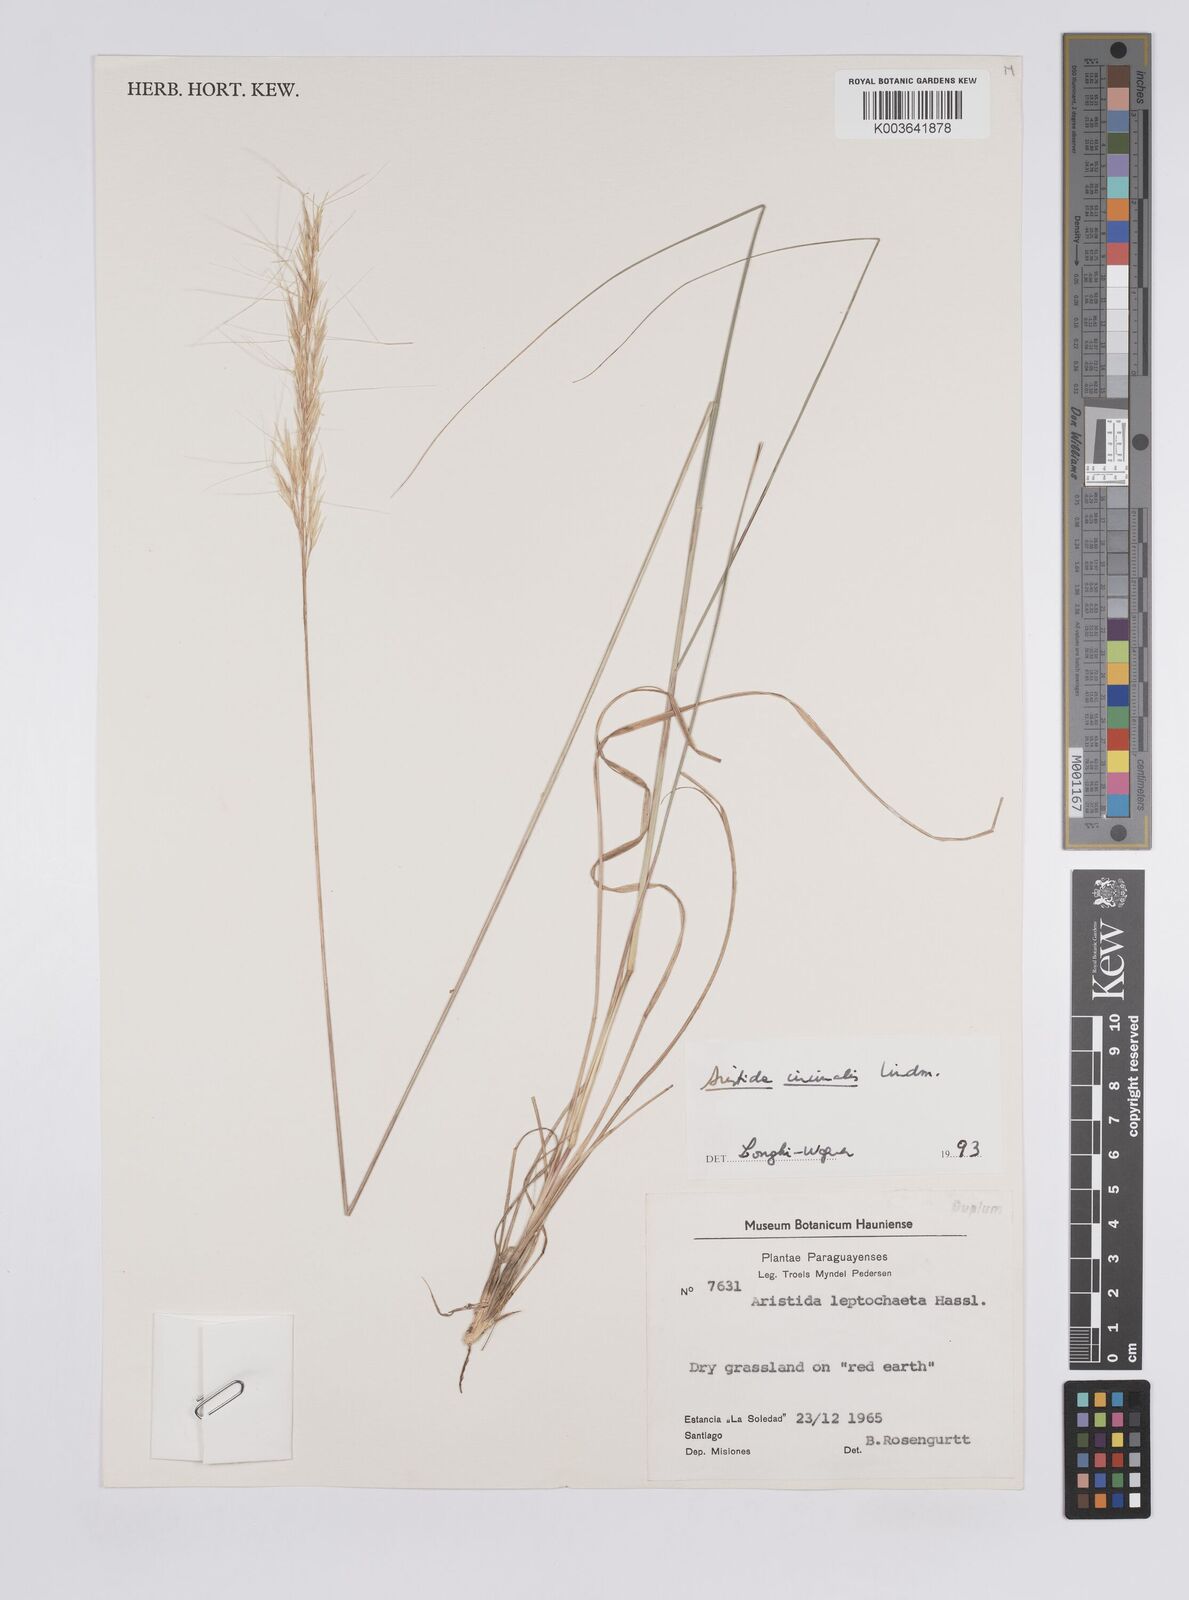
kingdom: Plantae
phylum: Tracheophyta
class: Liliopsida
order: Poales
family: Poaceae
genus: Aristida
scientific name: Aristida circinalis
